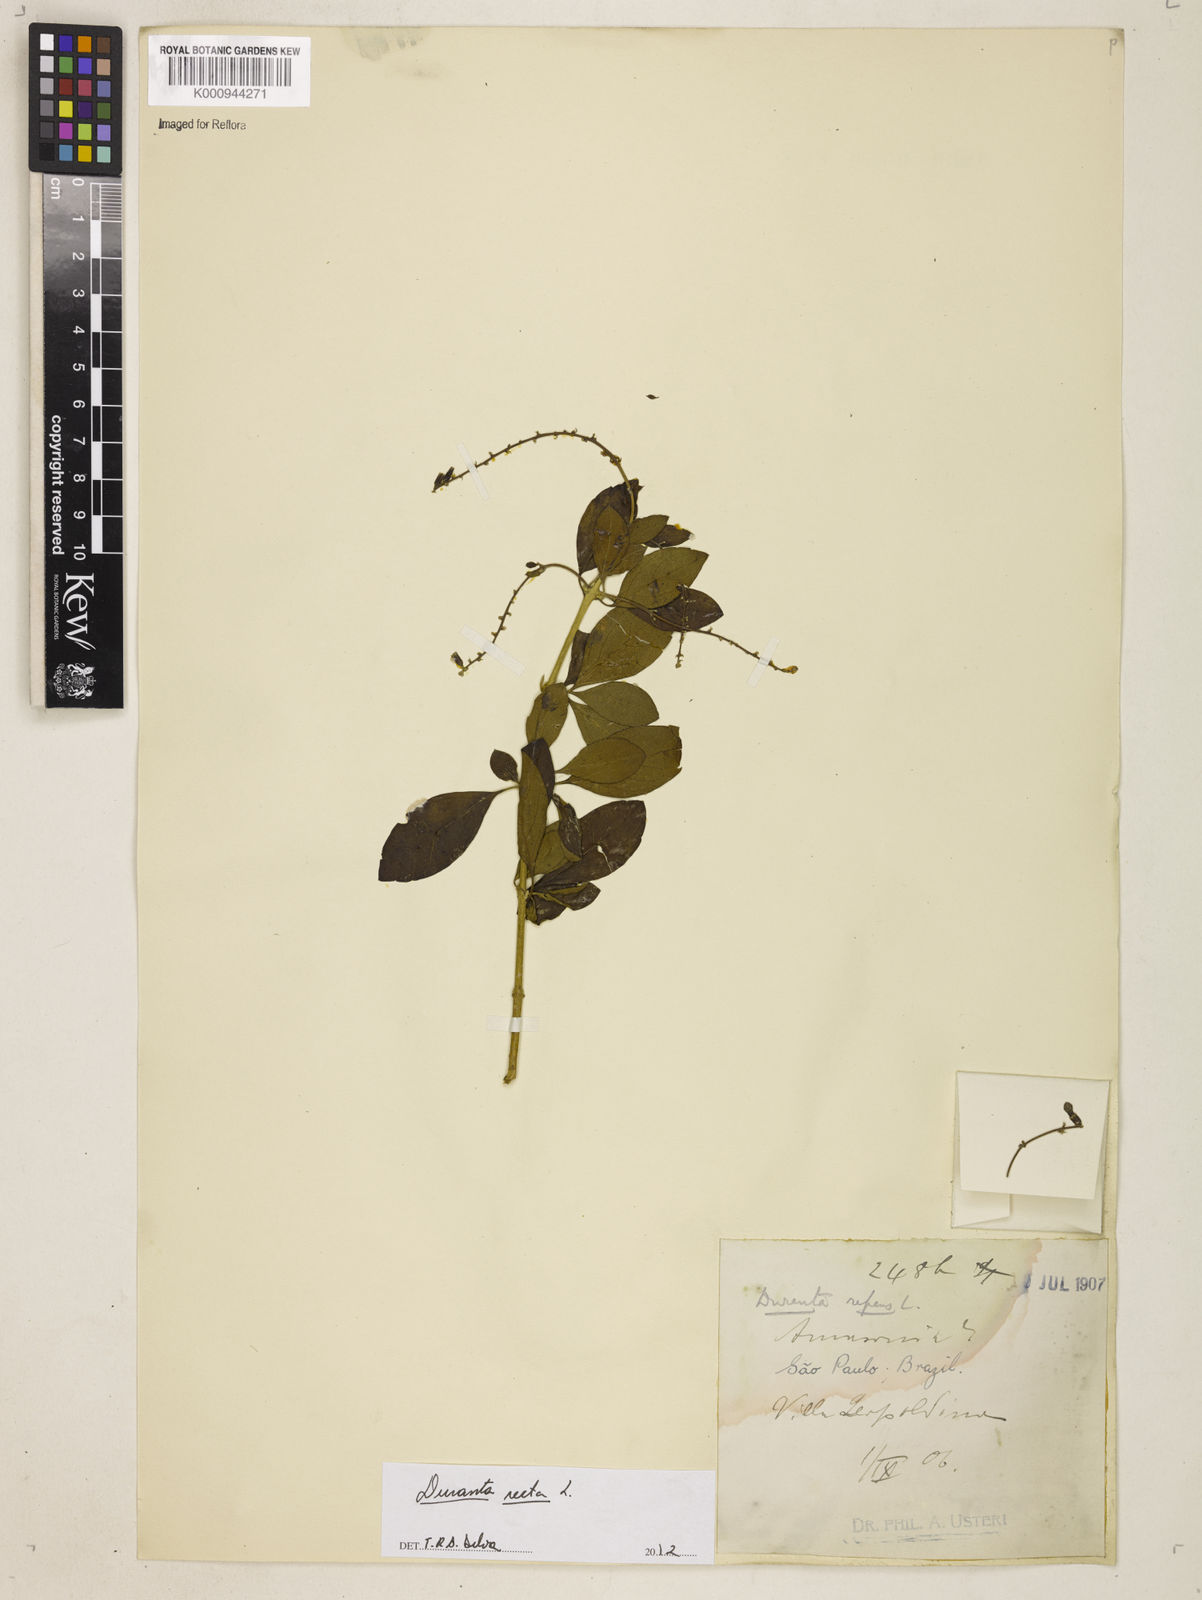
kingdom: Plantae
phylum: Tracheophyta
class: Magnoliopsida
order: Lamiales
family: Verbenaceae
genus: Citharexylum
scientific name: Citharexylum caudatum
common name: Fiddlewood
